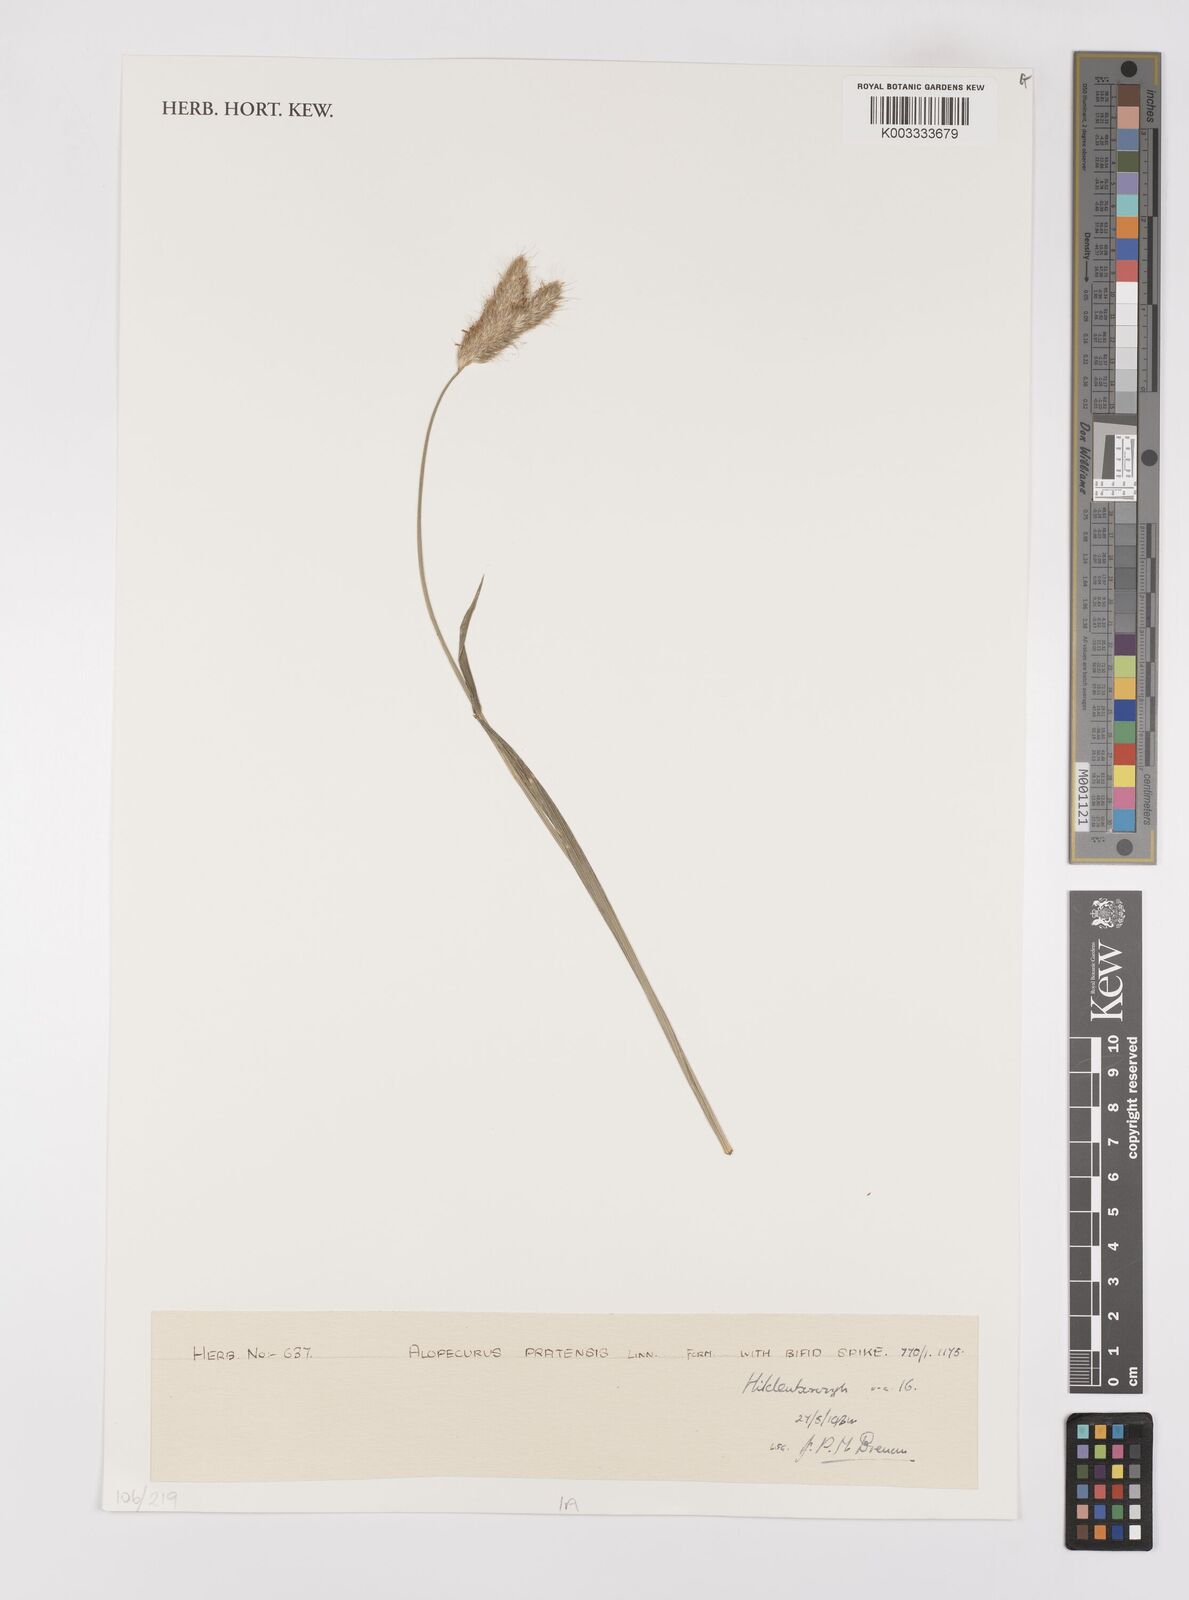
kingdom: Plantae
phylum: Tracheophyta
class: Liliopsida
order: Poales
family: Poaceae
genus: Alopecurus
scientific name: Alopecurus pratensis
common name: Meadow foxtail
